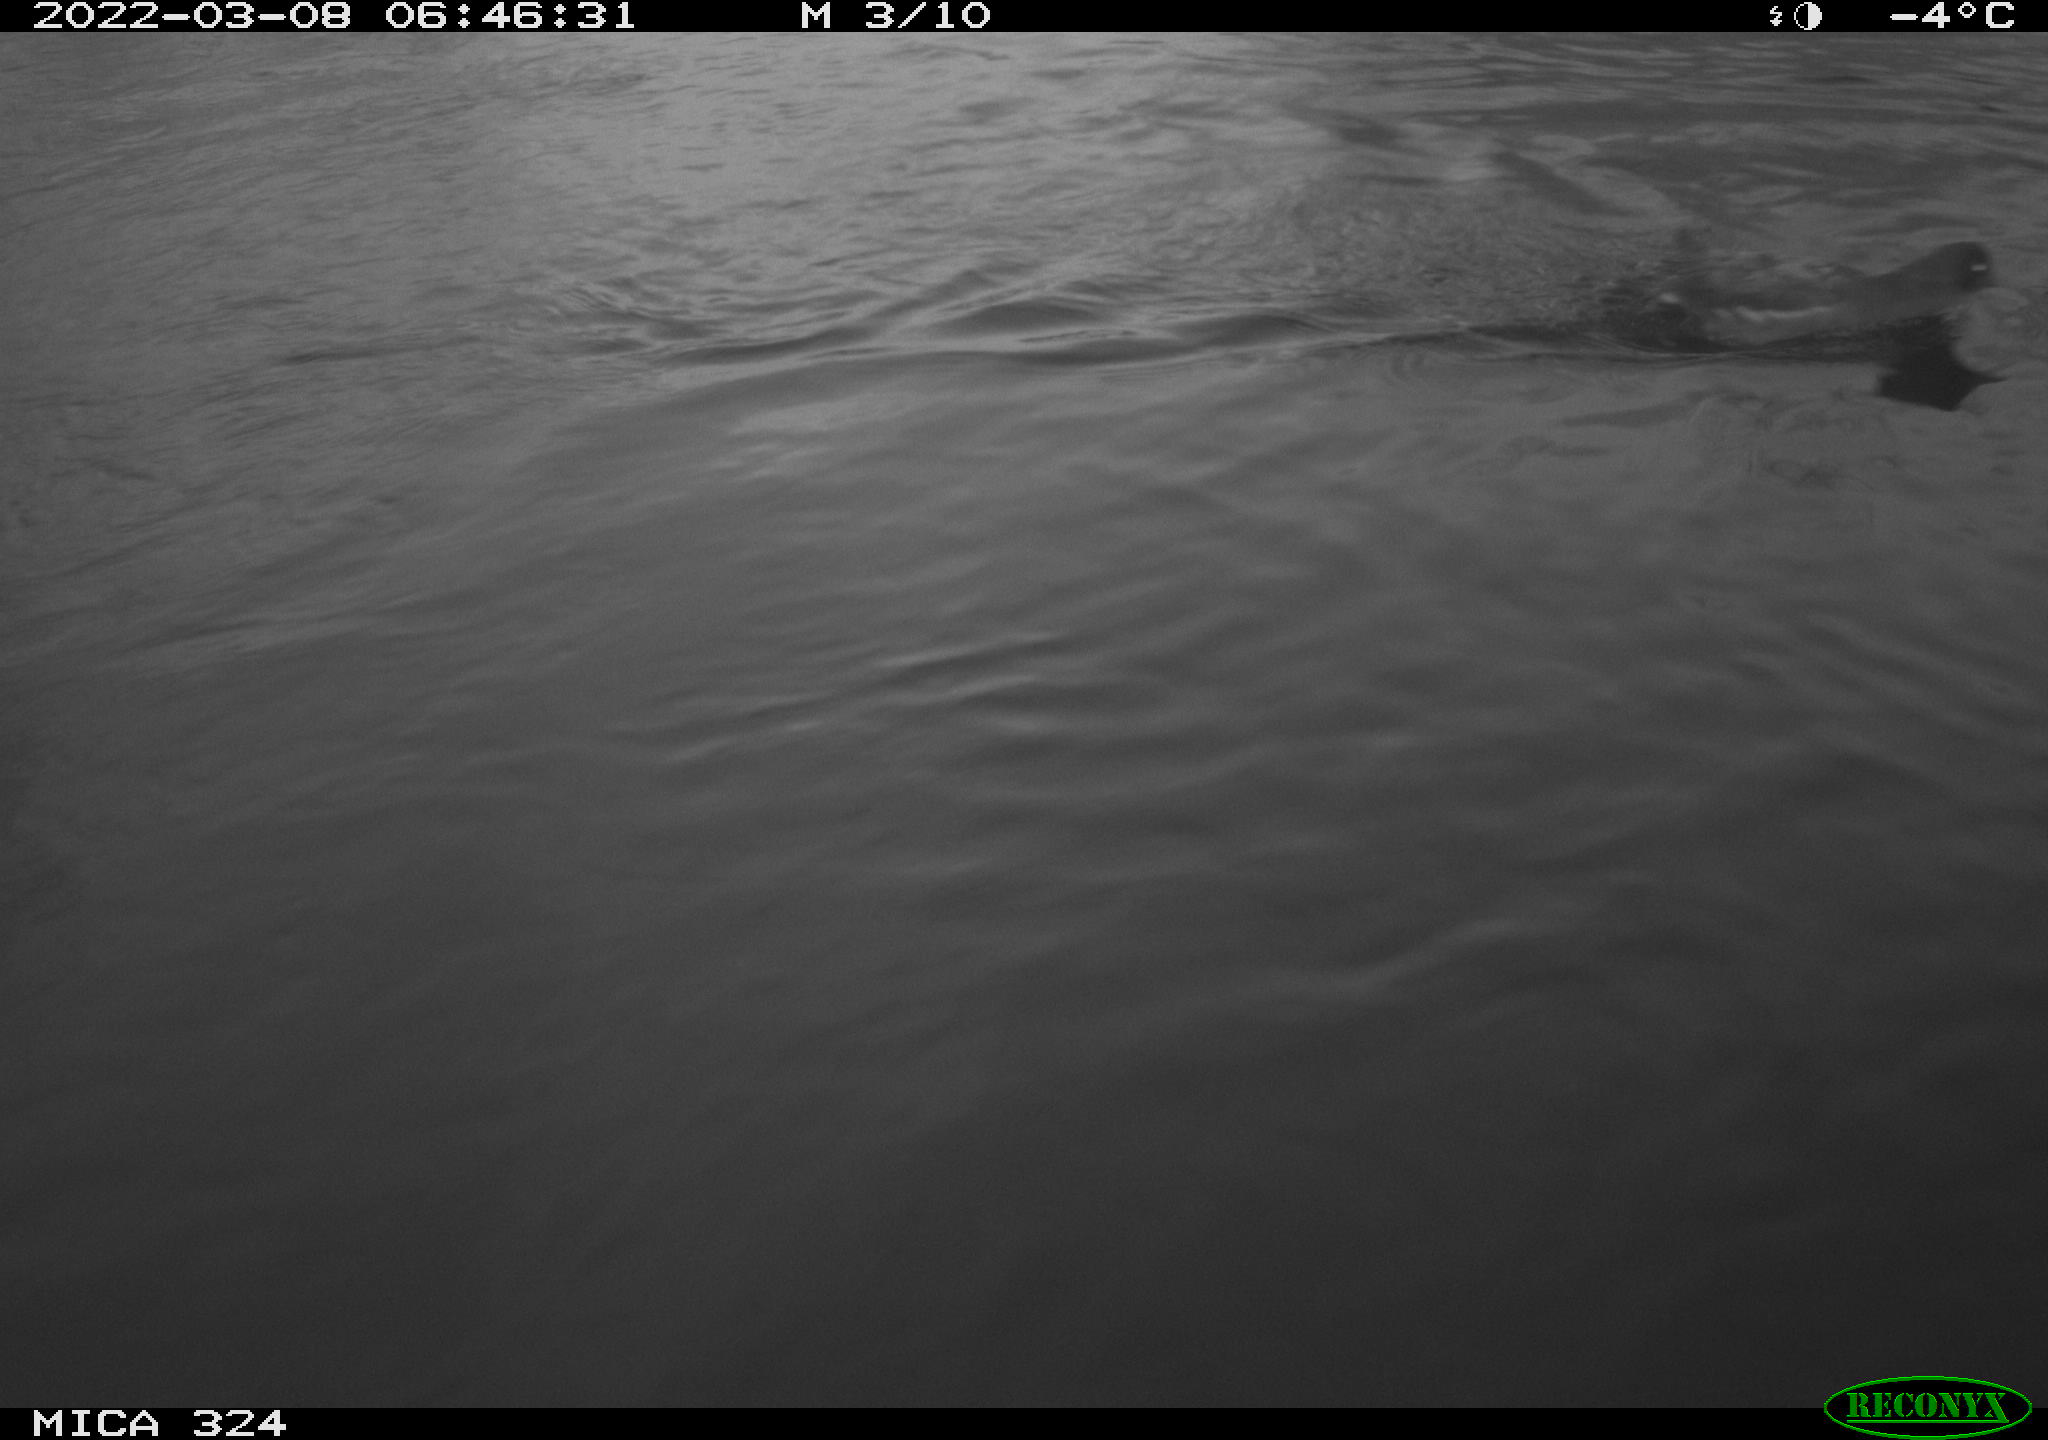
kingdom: Animalia
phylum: Chordata
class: Aves
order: Passeriformes
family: Corvidae
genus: Garrulus
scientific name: Garrulus glandarius
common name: Eurasian jay
